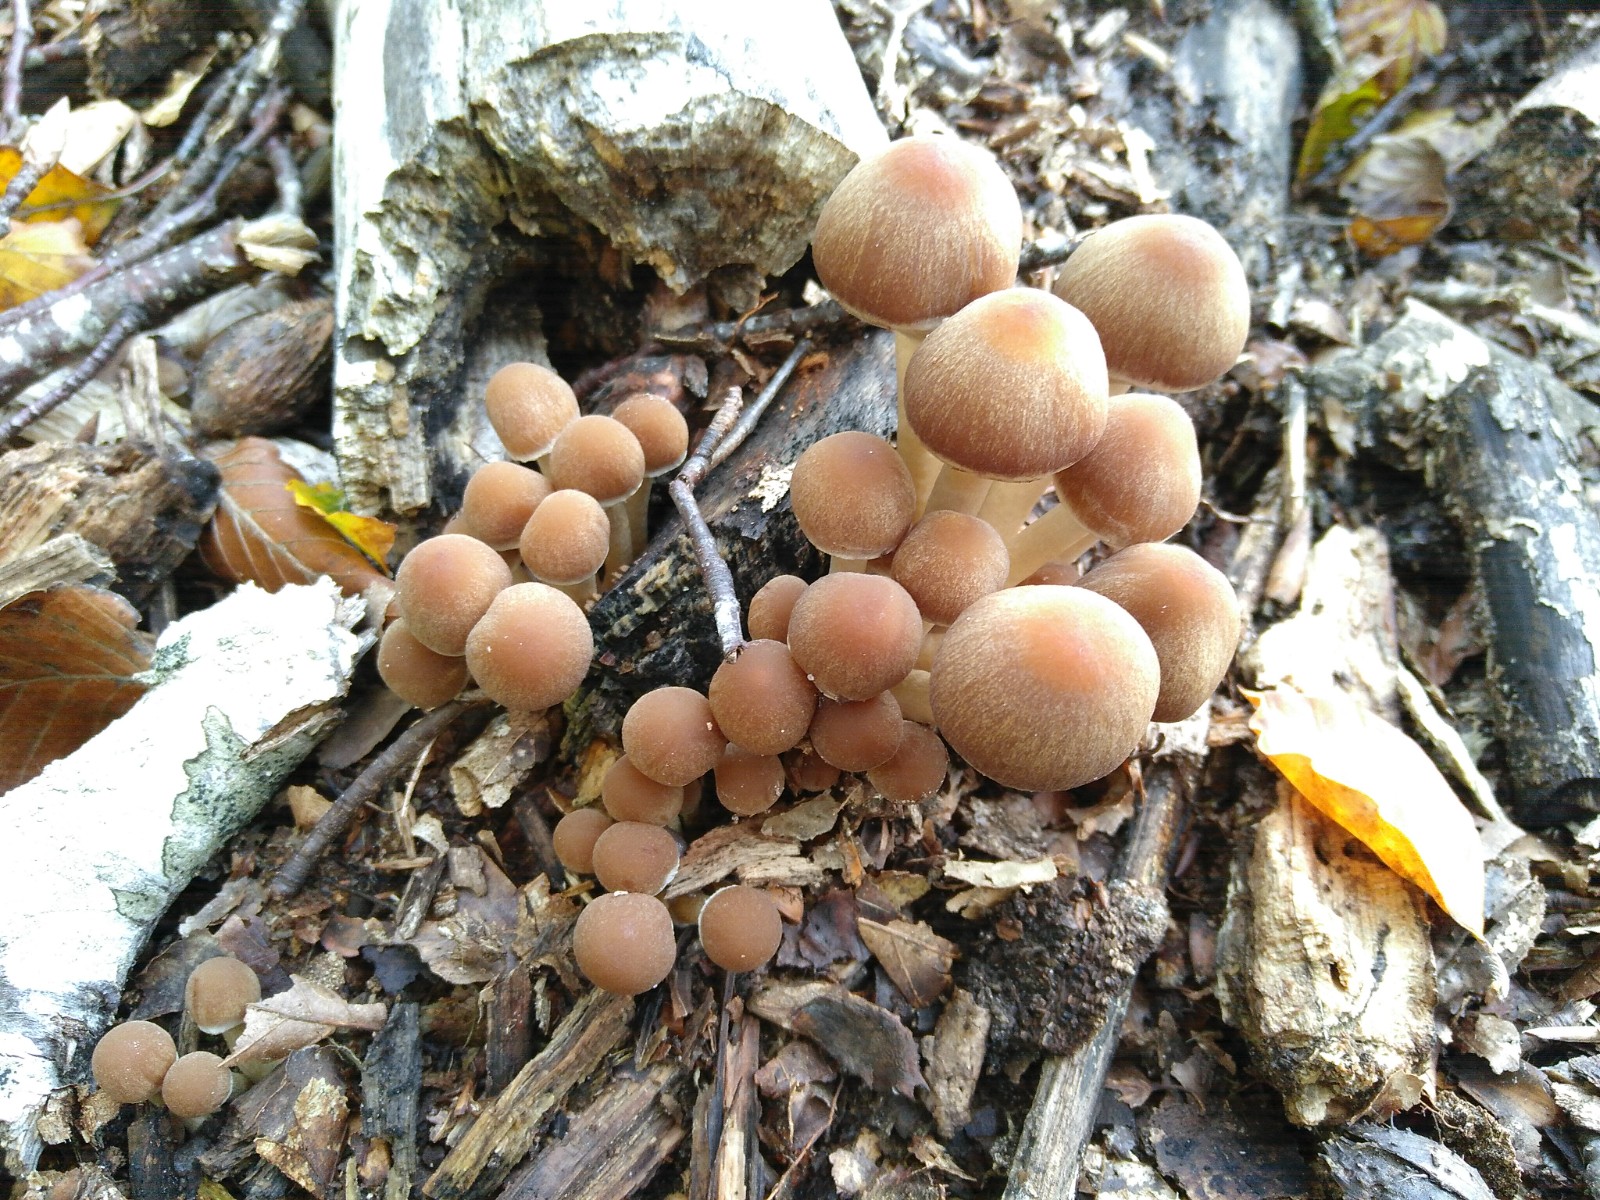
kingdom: Fungi
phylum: Basidiomycota
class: Agaricomycetes
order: Agaricales
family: Psathyrellaceae
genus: Psathyrella
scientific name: Psathyrella piluliformis
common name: lysstokket mørkhat
